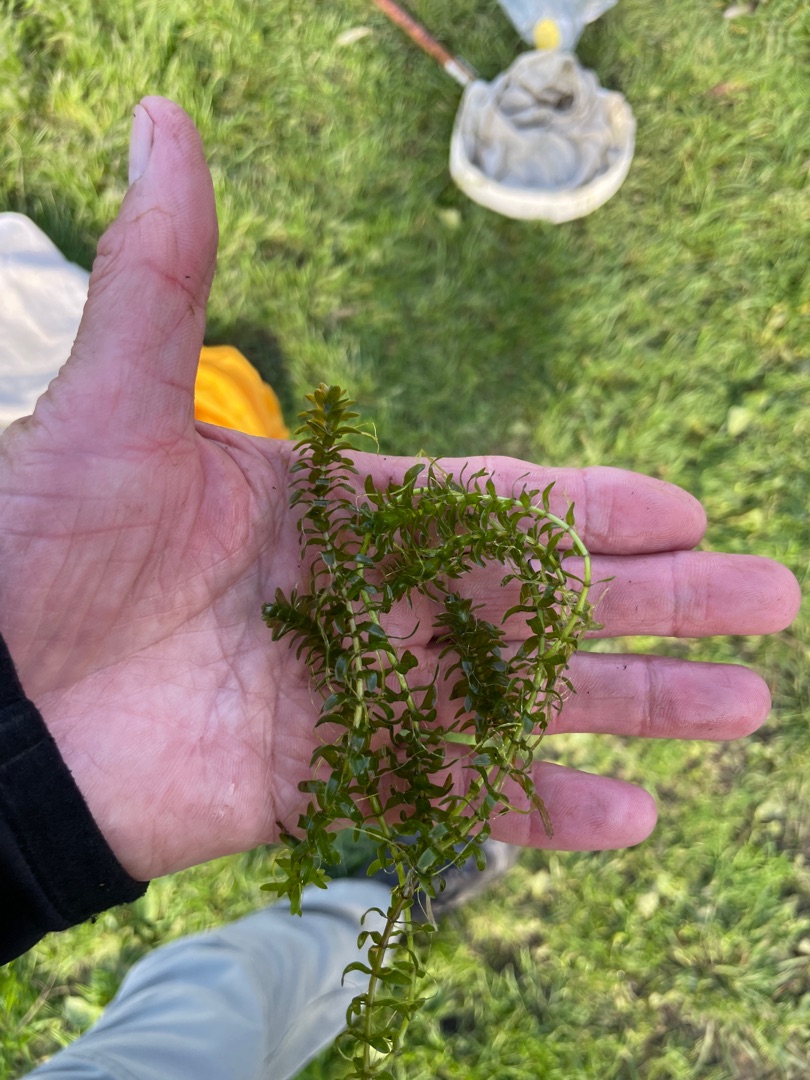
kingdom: Plantae
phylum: Tracheophyta
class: Liliopsida
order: Alismatales
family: Hydrocharitaceae
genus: Elodea
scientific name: Elodea canadensis
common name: Vandpest
